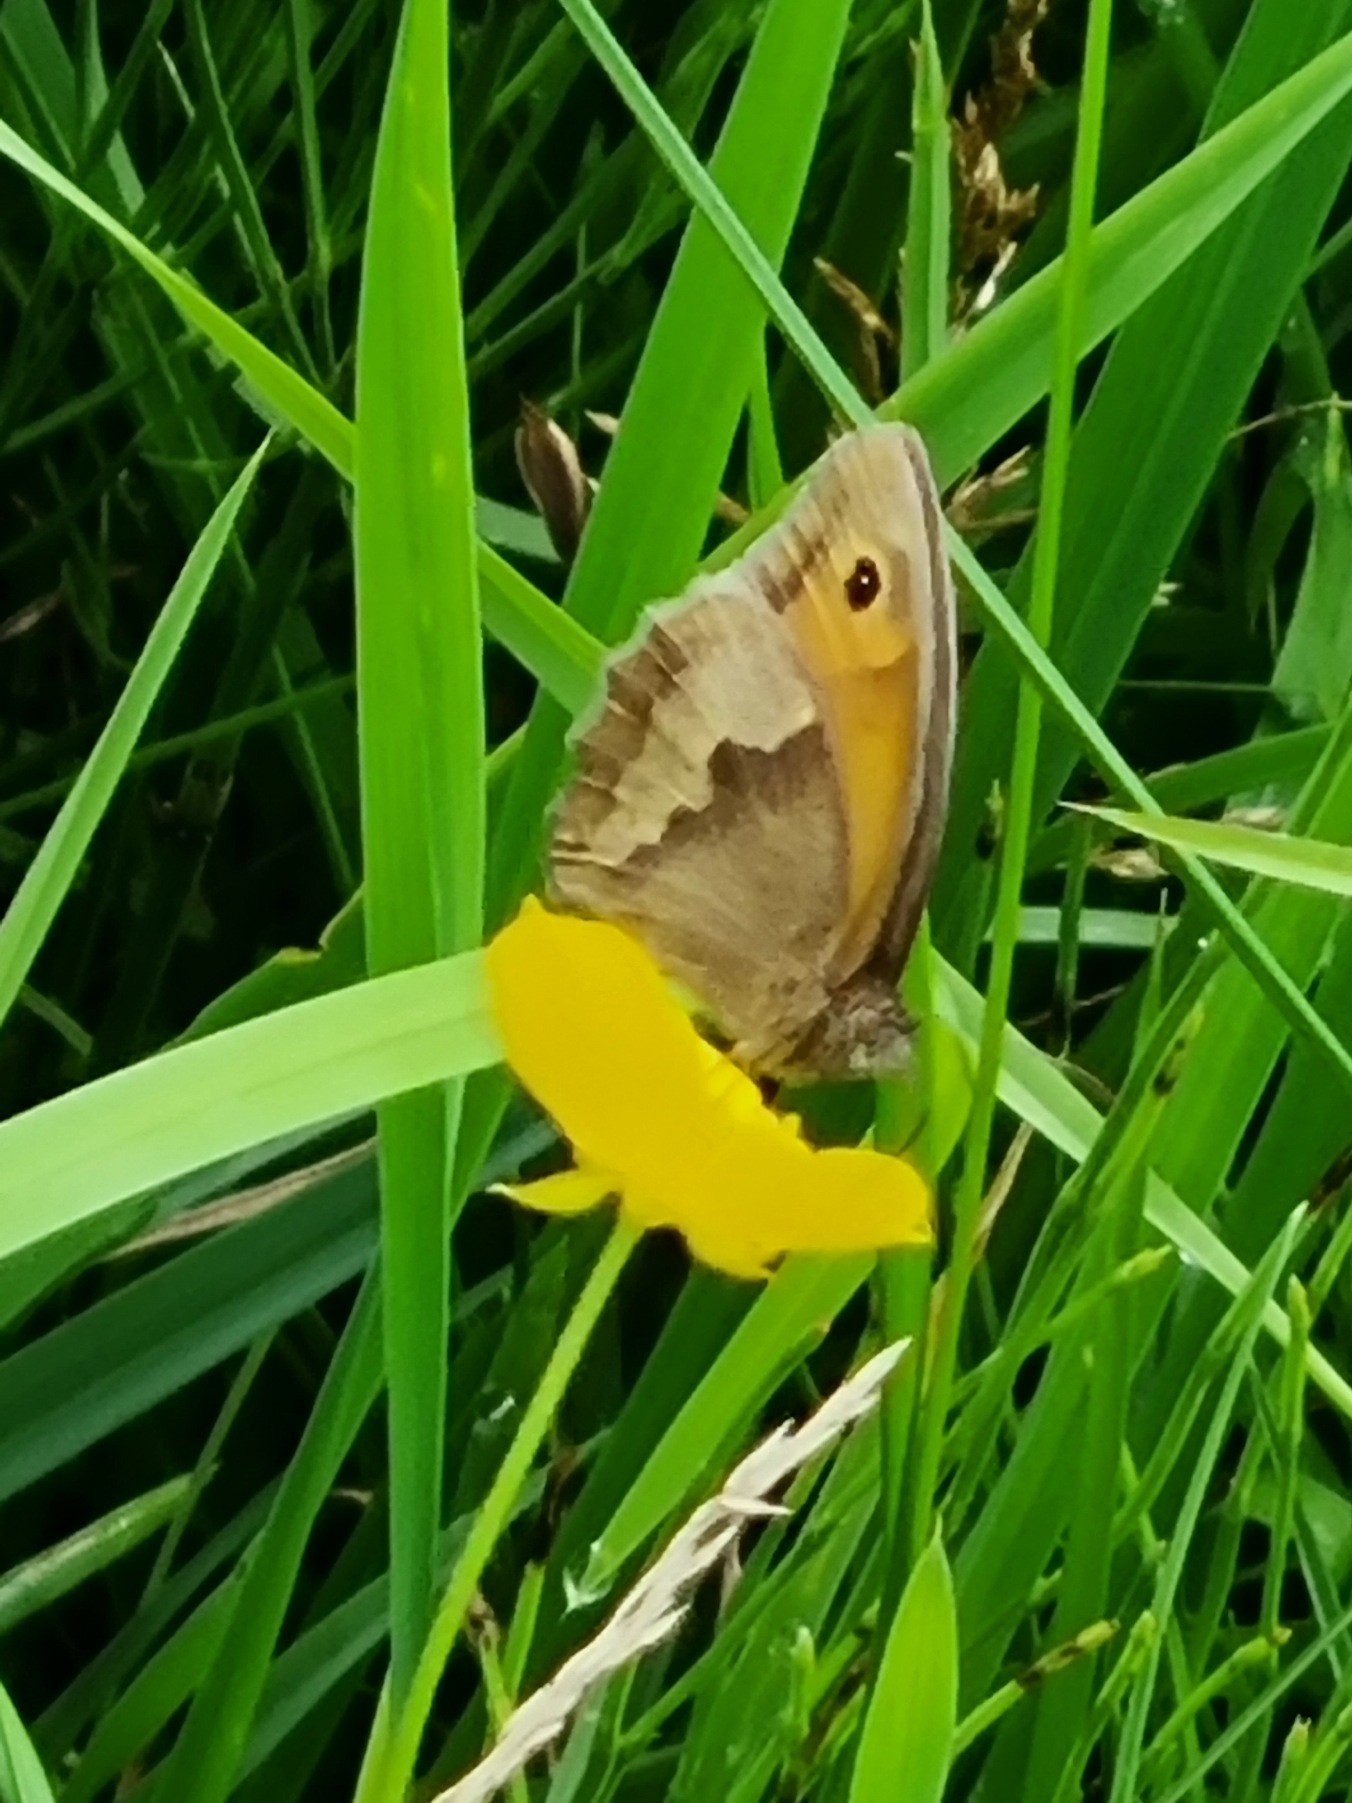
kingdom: Animalia
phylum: Arthropoda
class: Insecta
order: Lepidoptera
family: Nymphalidae
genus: Maniola
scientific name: Maniola jurtina
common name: Græsrandøje
